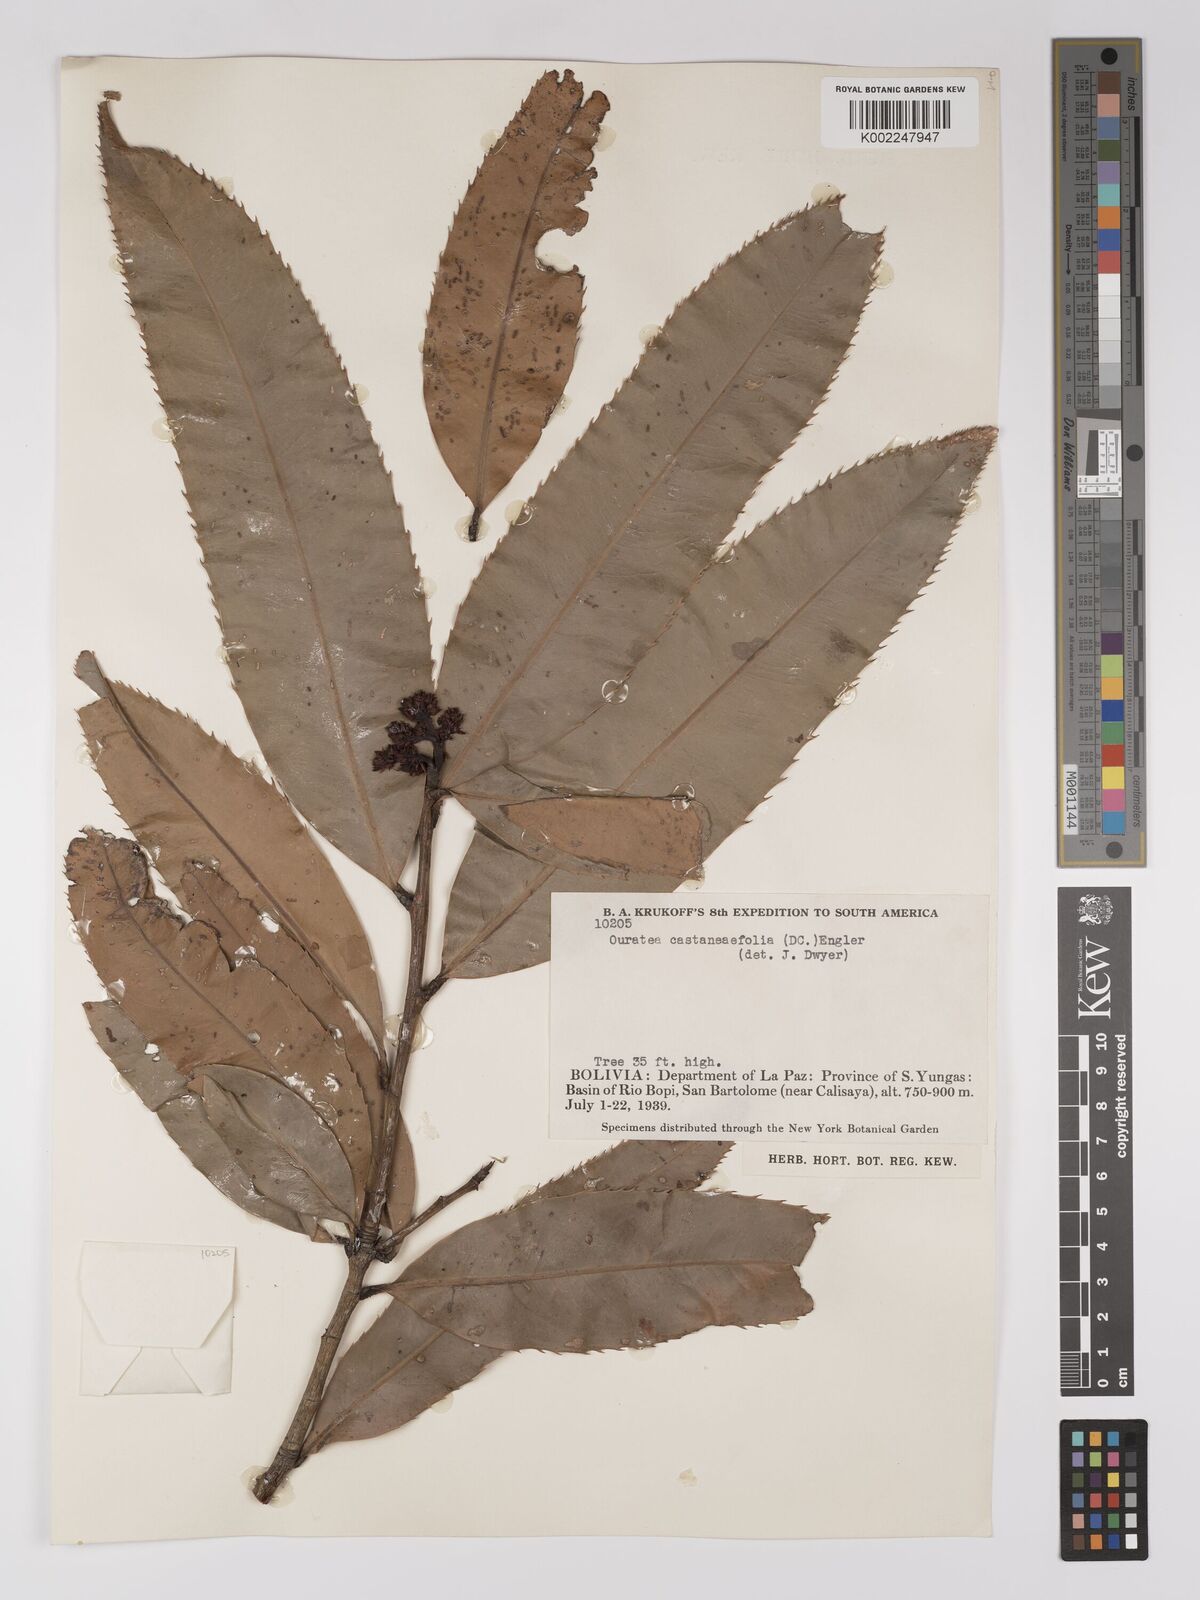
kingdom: Plantae
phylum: Tracheophyta
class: Magnoliopsida
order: Malpighiales
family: Ochnaceae
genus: Ouratea
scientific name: Ouratea castaneifolia
